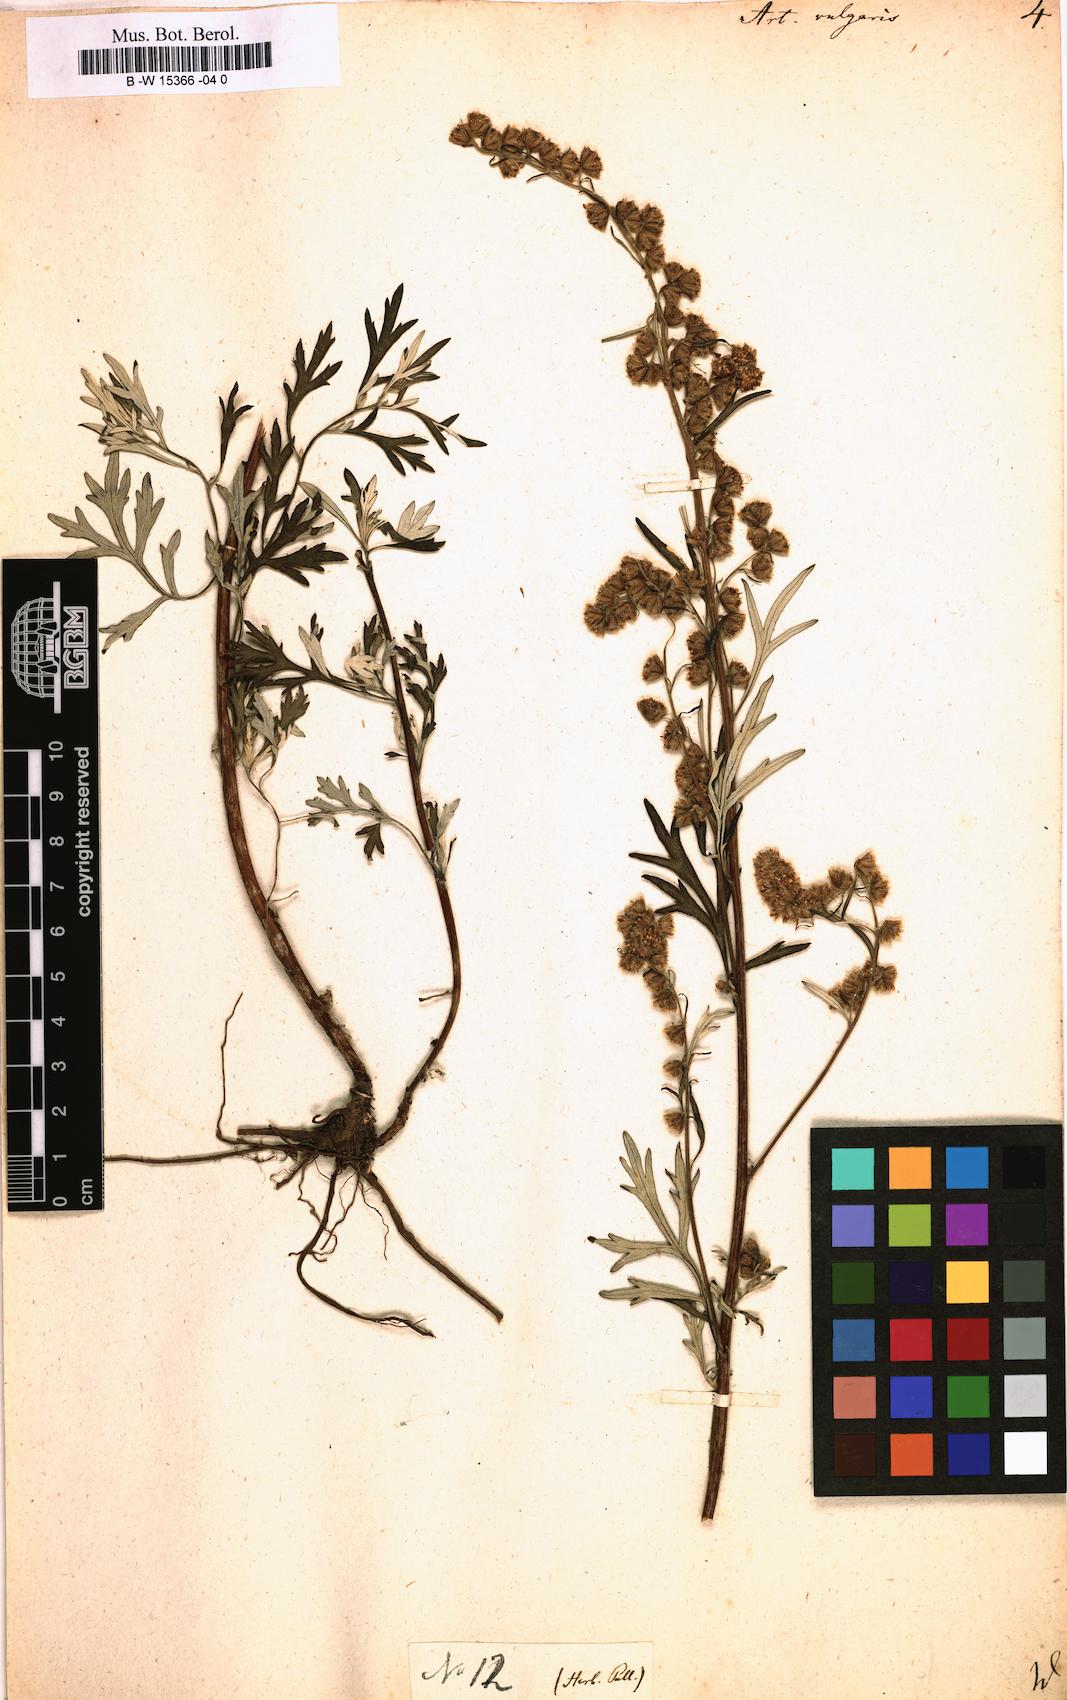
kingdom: Plantae
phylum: Tracheophyta
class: Magnoliopsida
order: Asterales
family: Asteraceae
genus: Artemisia
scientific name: Artemisia vulgaris
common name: Mugwort
